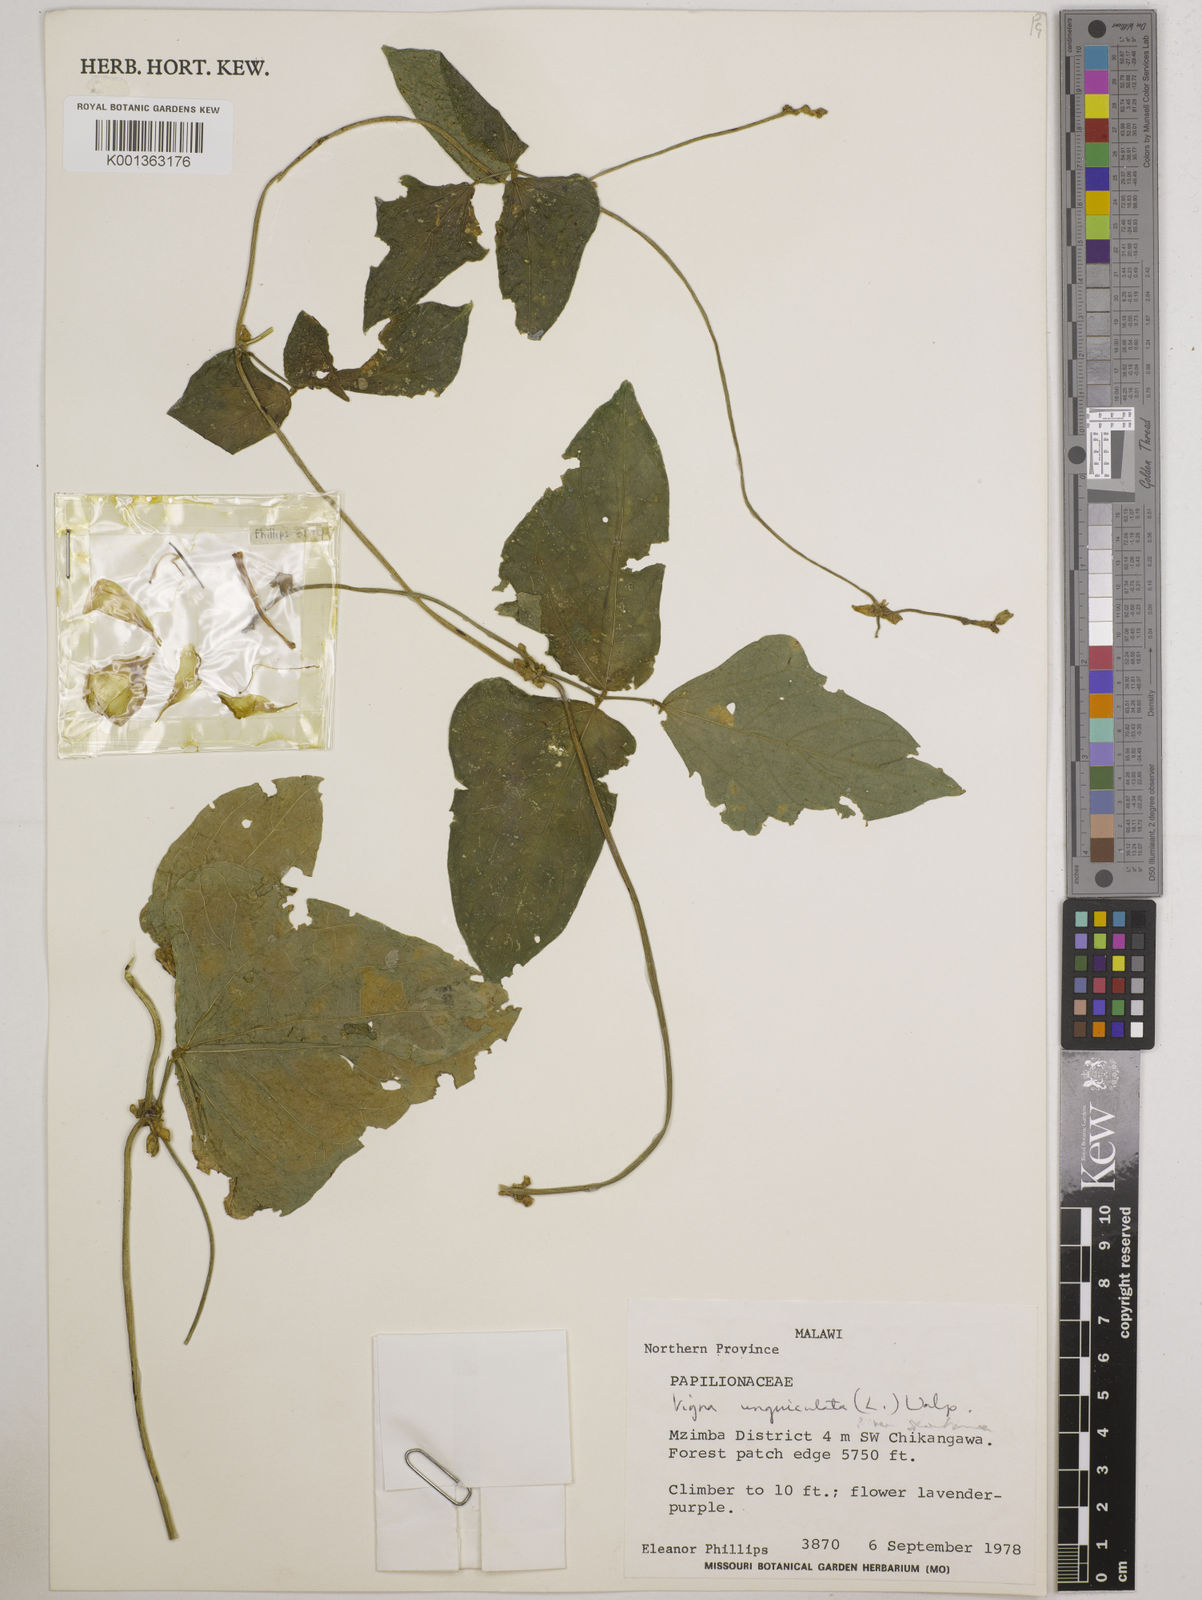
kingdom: Plantae
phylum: Tracheophyta
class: Magnoliopsida
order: Fabales
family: Fabaceae
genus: Vigna
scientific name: Vigna unguiculata
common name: Cowpea
